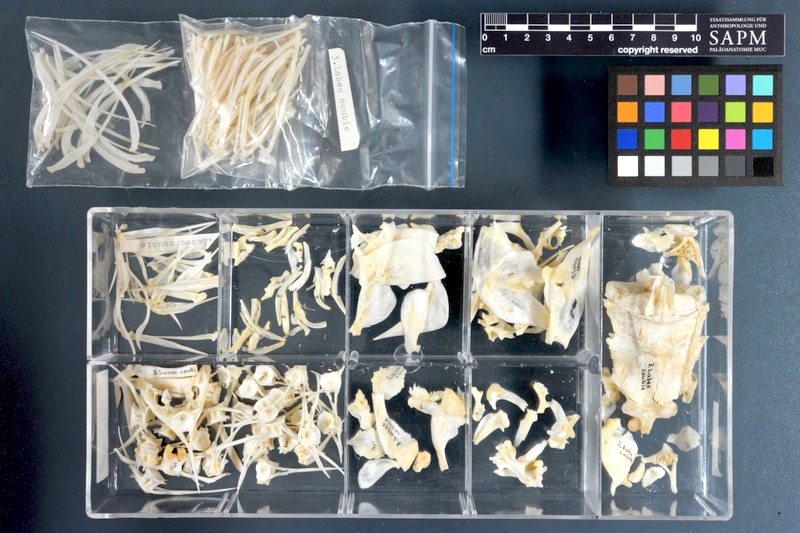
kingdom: Animalia
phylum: Chordata
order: Cypriniformes
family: Cyprinidae
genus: Labeo
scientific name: Labeo coubie
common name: African carp
